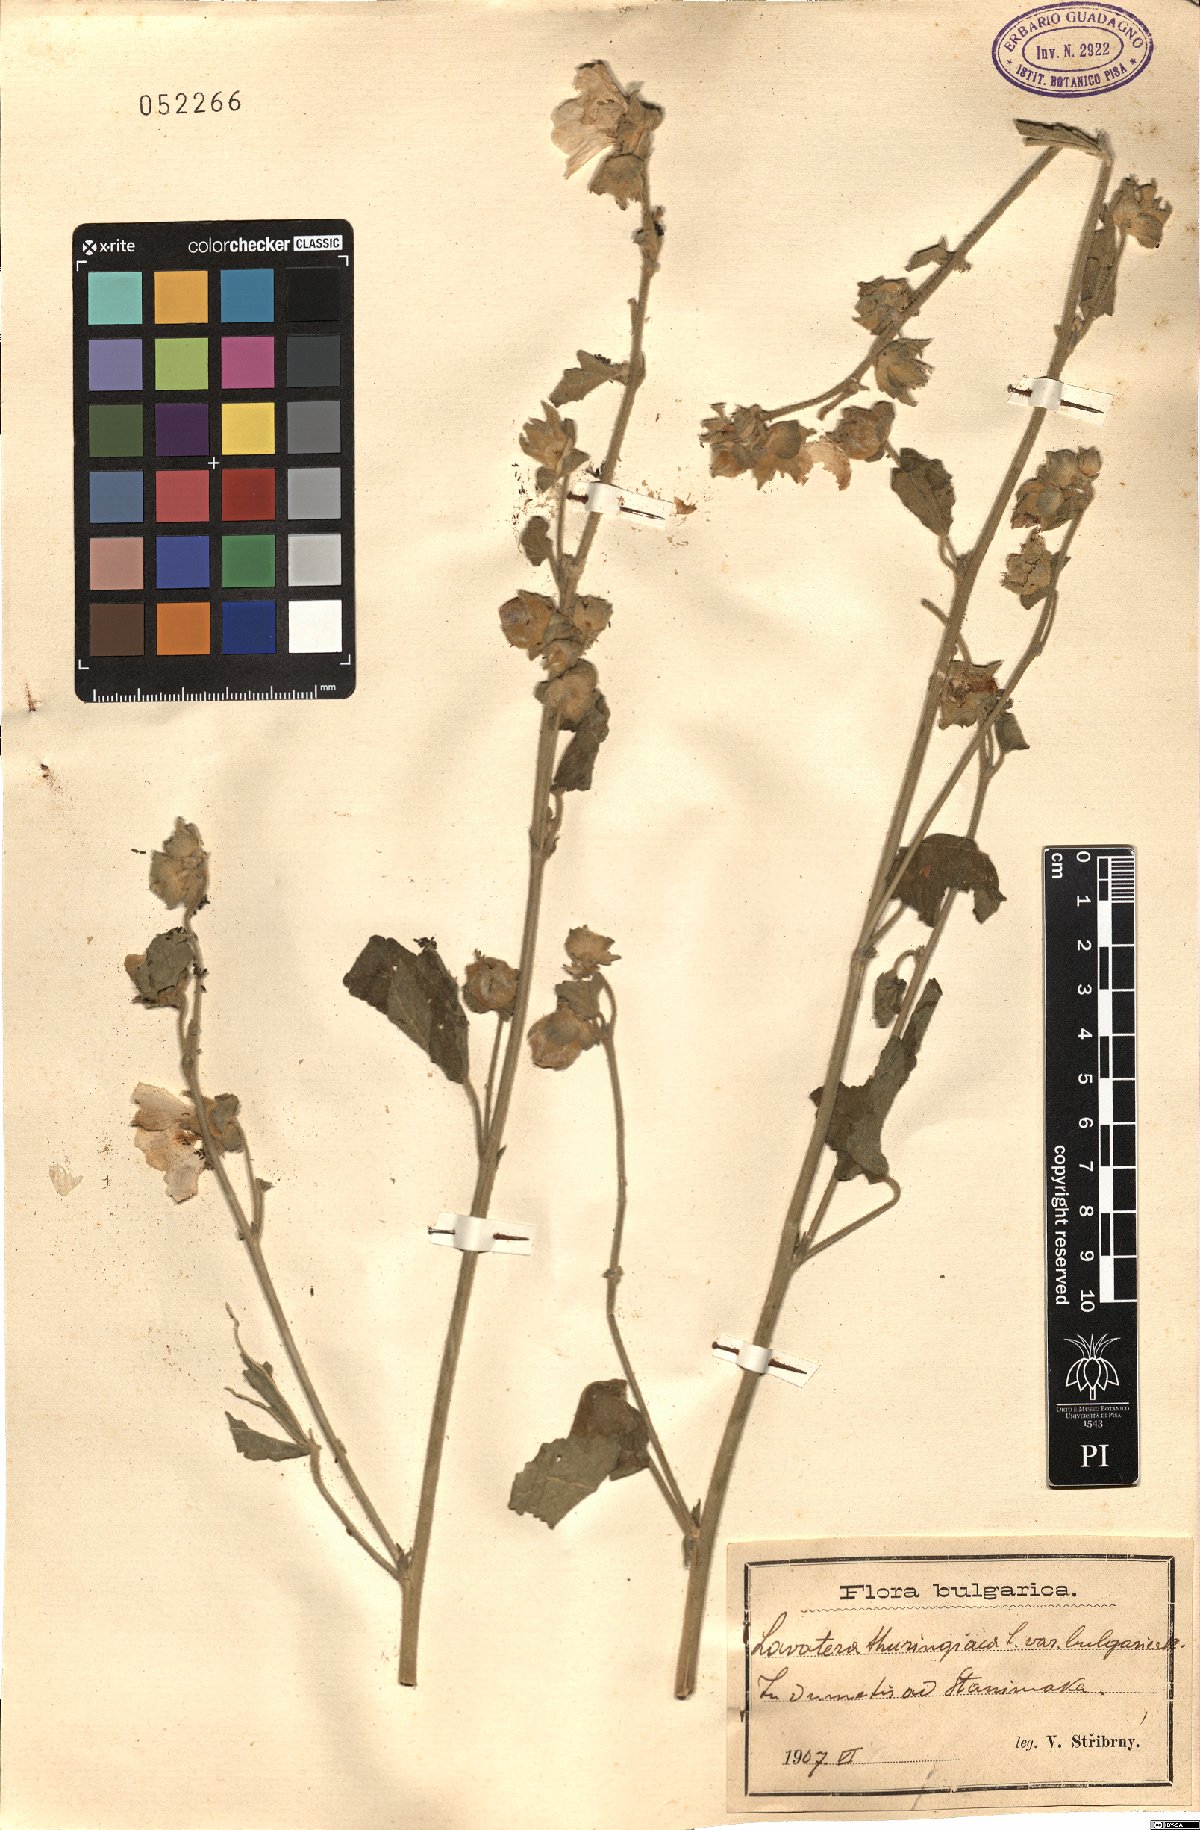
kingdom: Plantae
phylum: Tracheophyta
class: Magnoliopsida
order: Malvales
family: Malvaceae
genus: Malva
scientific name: Malva thuringiaca
